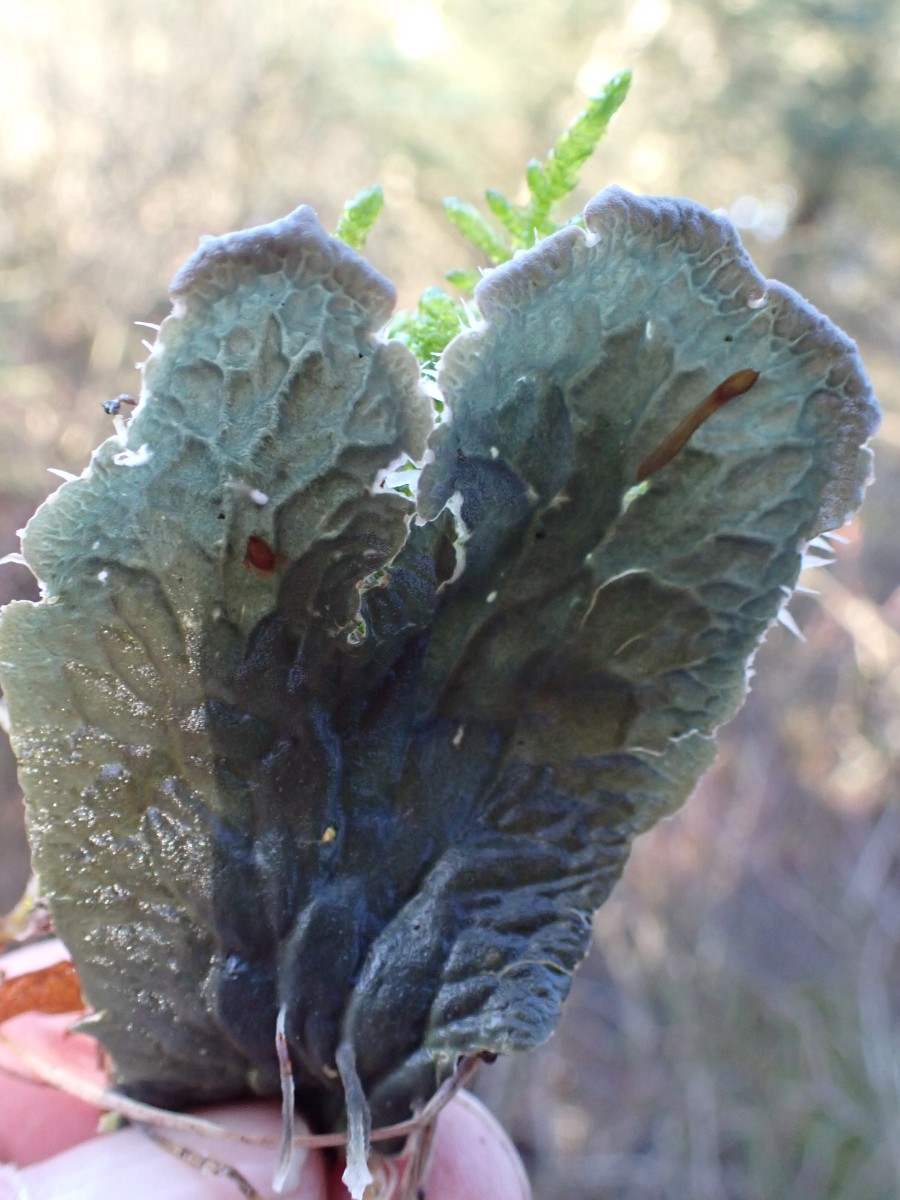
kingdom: Fungi
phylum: Ascomycota
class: Lecanoromycetes
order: Peltigerales
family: Peltigeraceae
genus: Peltigera
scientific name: Peltigera membranacea
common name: tynd skjoldlav
